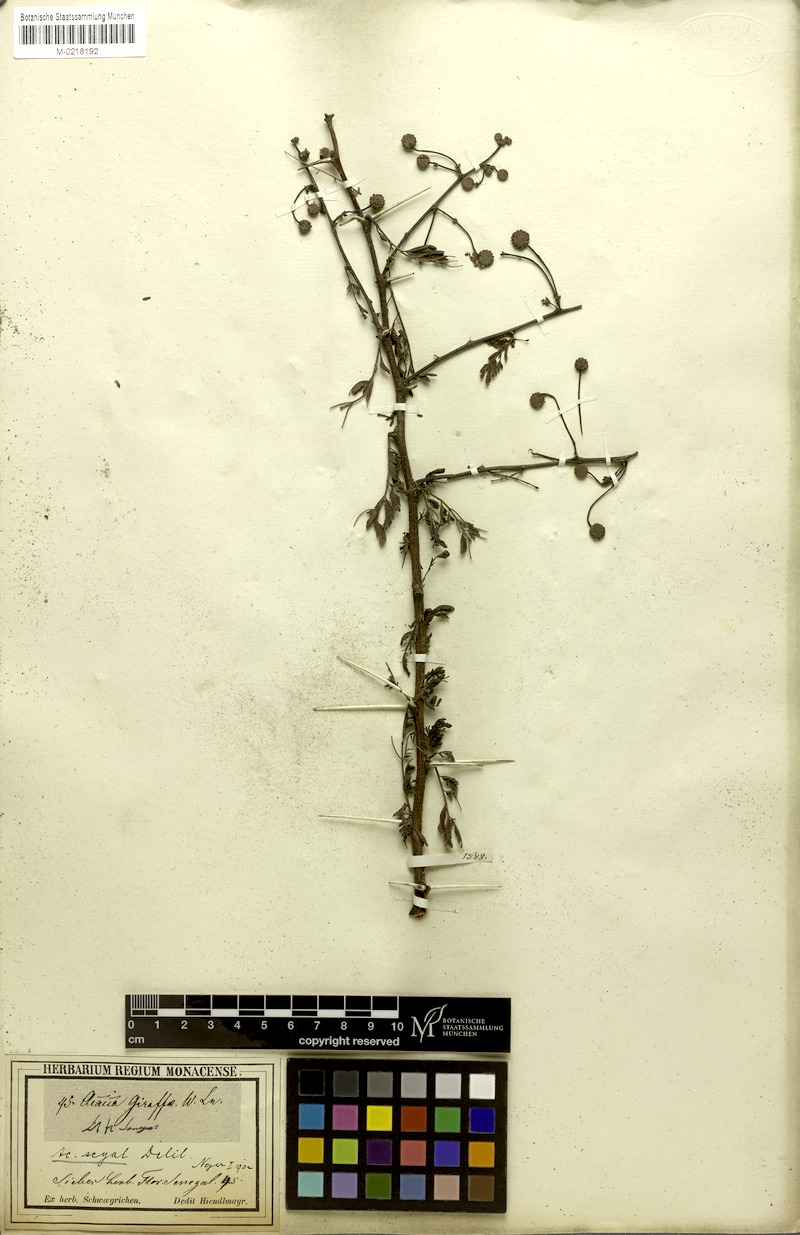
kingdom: Plantae
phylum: Tracheophyta
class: Magnoliopsida
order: Fabales
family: Fabaceae
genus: Vachellia
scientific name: Vachellia seyal
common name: Thirtythorn
